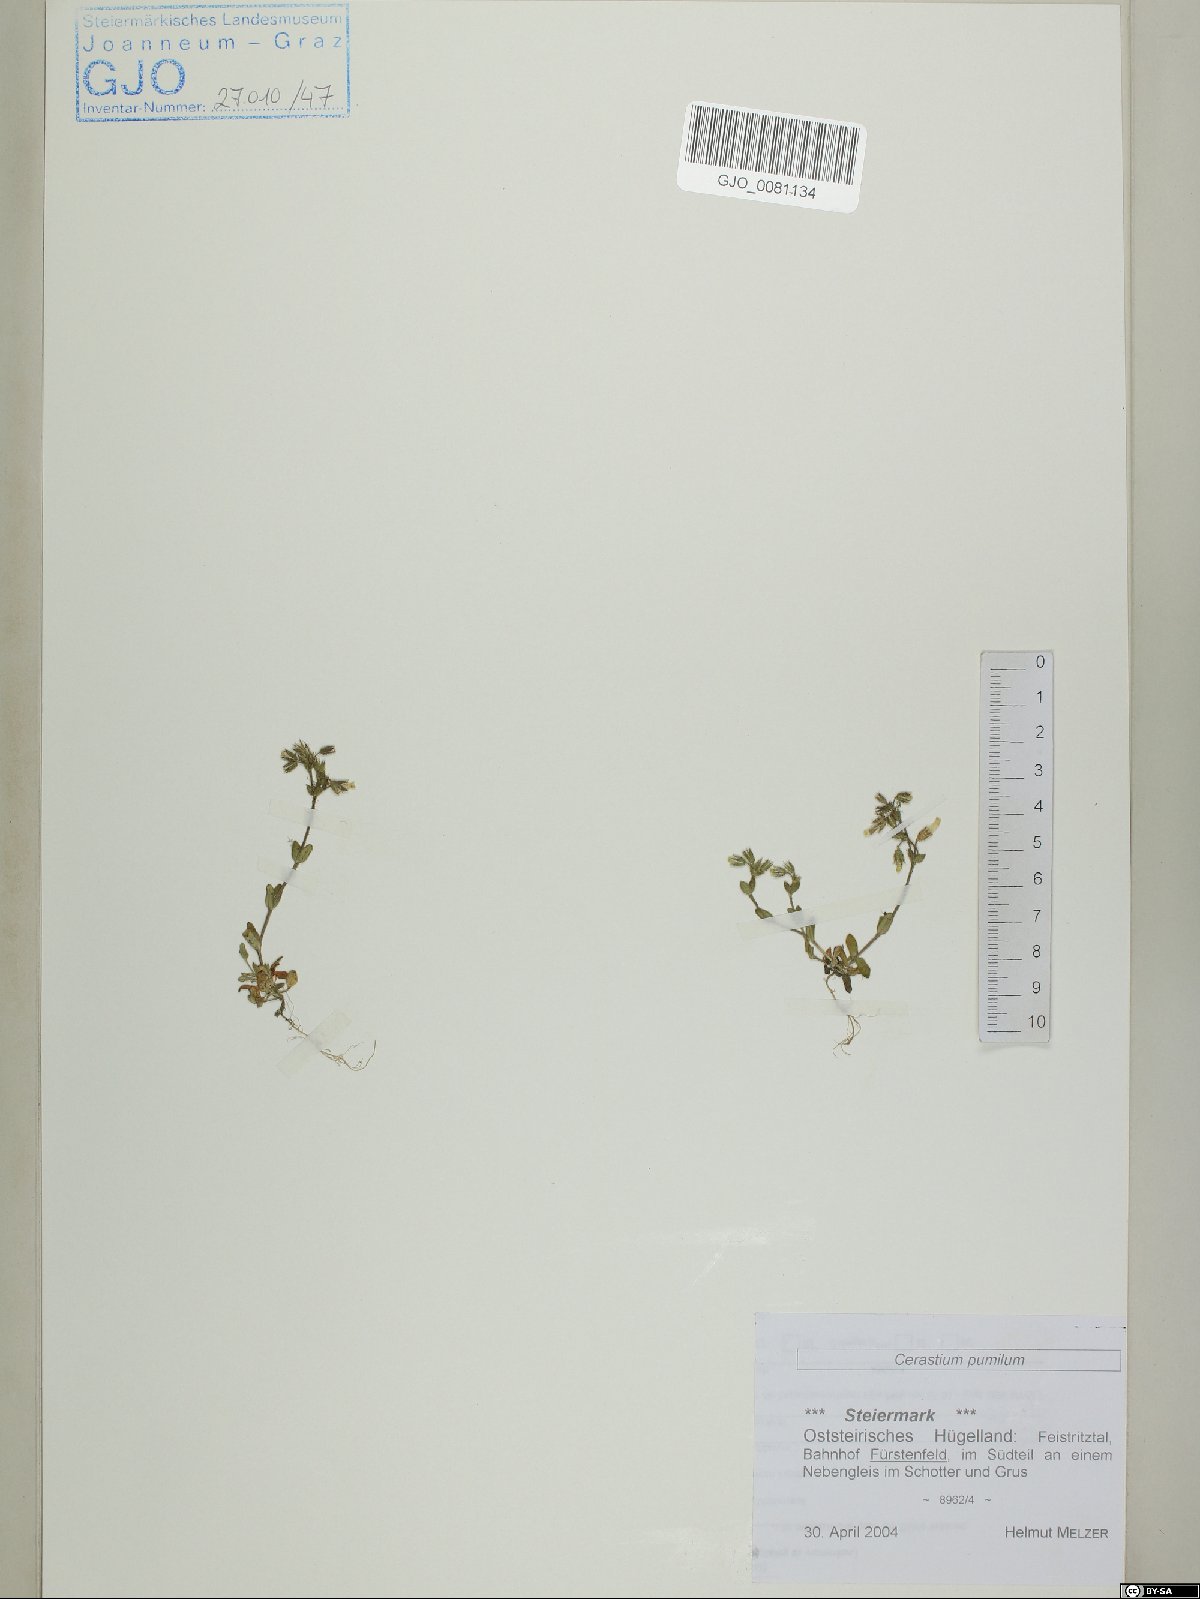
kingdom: Plantae
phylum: Tracheophyta
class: Magnoliopsida
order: Caryophyllales
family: Caryophyllaceae
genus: Cerastium
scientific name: Cerastium pumilum
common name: Dwarf mouse-ear
